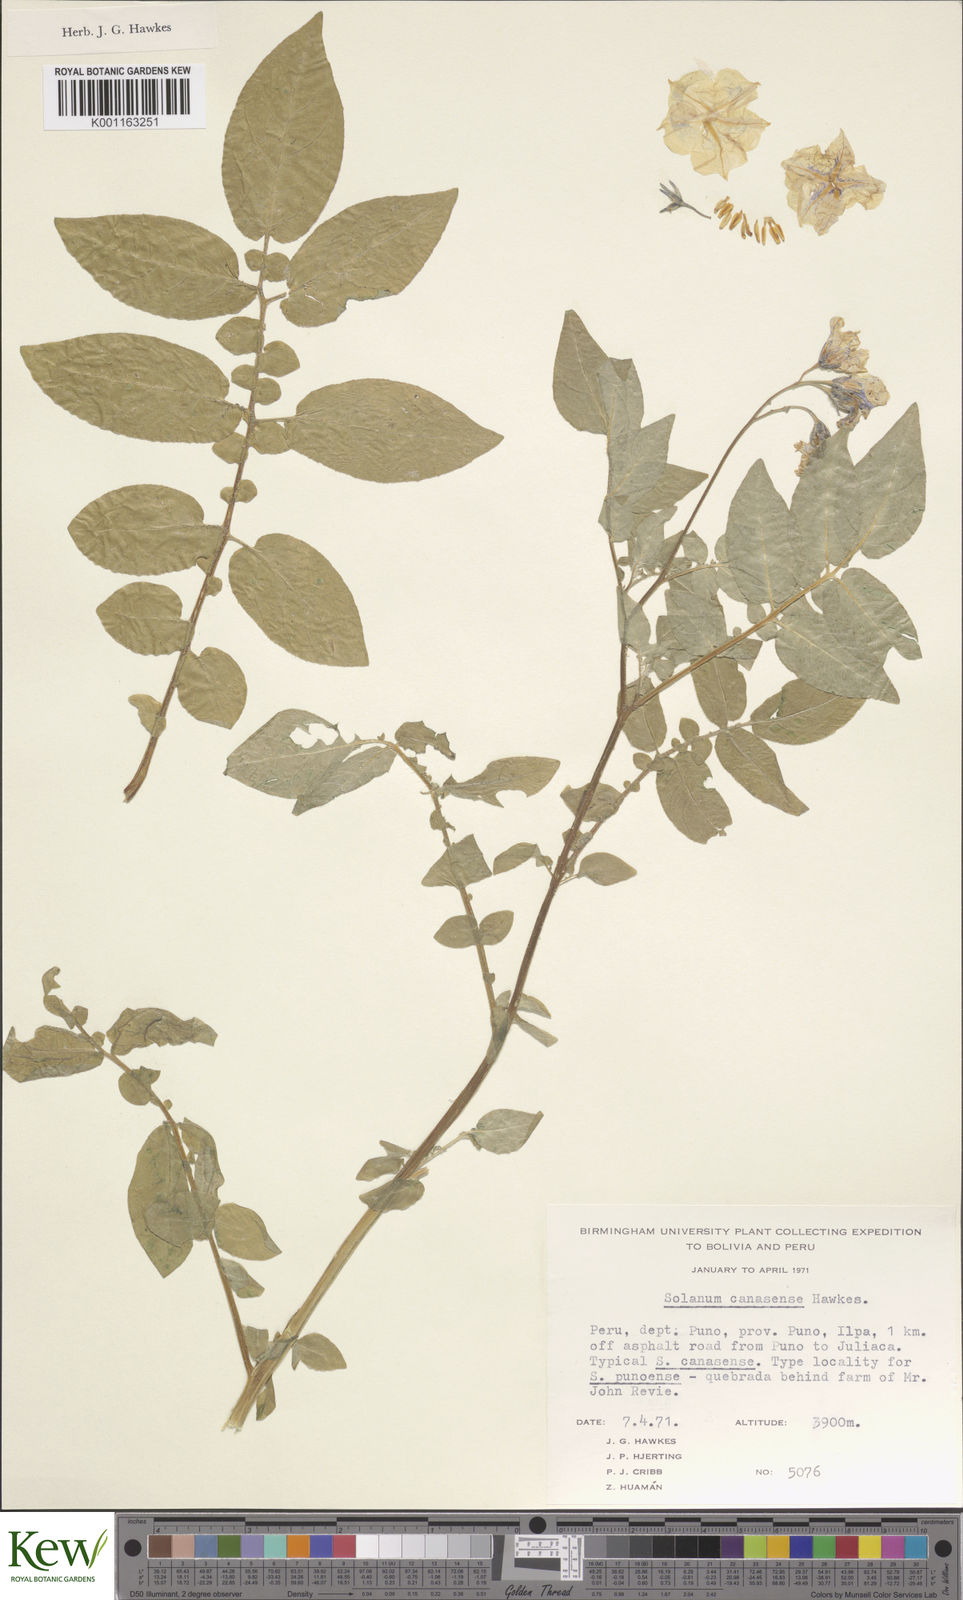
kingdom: Plantae
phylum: Tracheophyta
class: Magnoliopsida
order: Solanales
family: Solanaceae
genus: Solanum
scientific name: Solanum candolleanum
